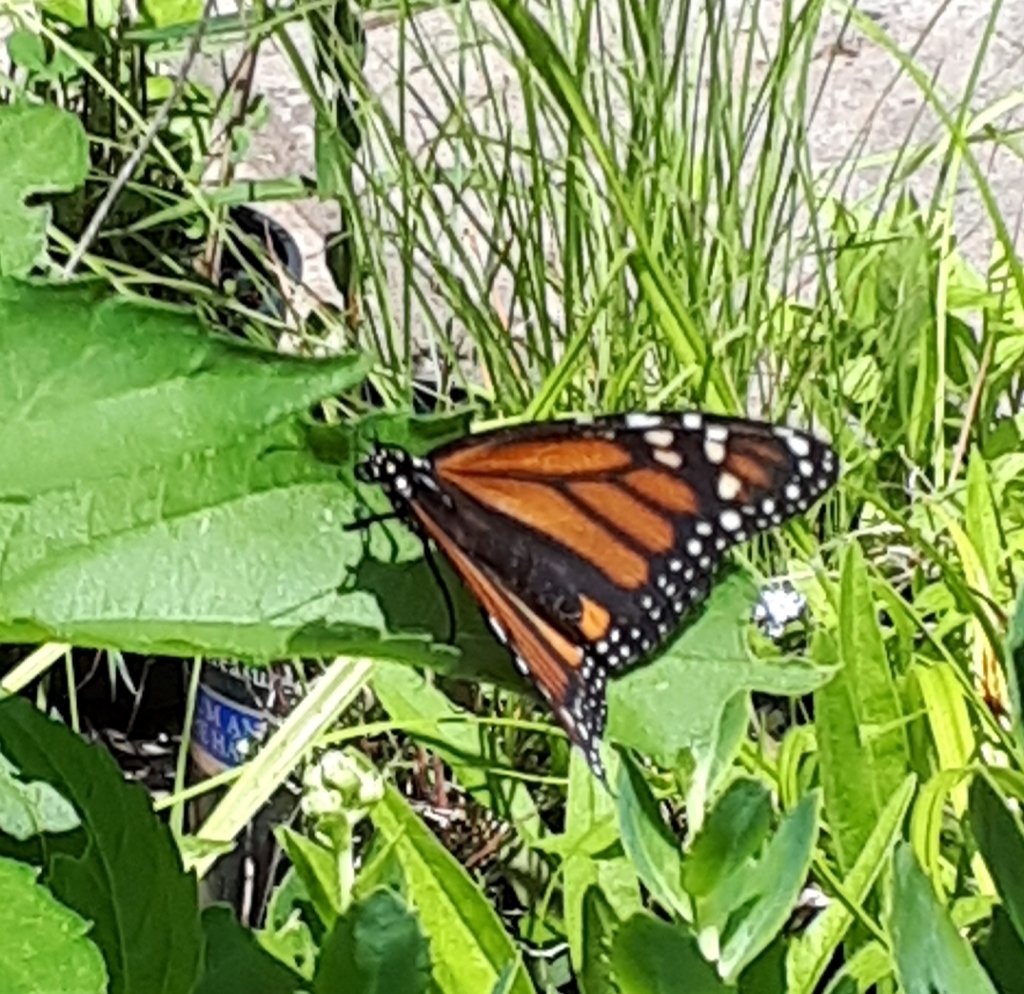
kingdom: Animalia
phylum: Arthropoda
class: Insecta
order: Lepidoptera
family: Nymphalidae
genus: Danaus
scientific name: Danaus plexippus
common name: Monarch
